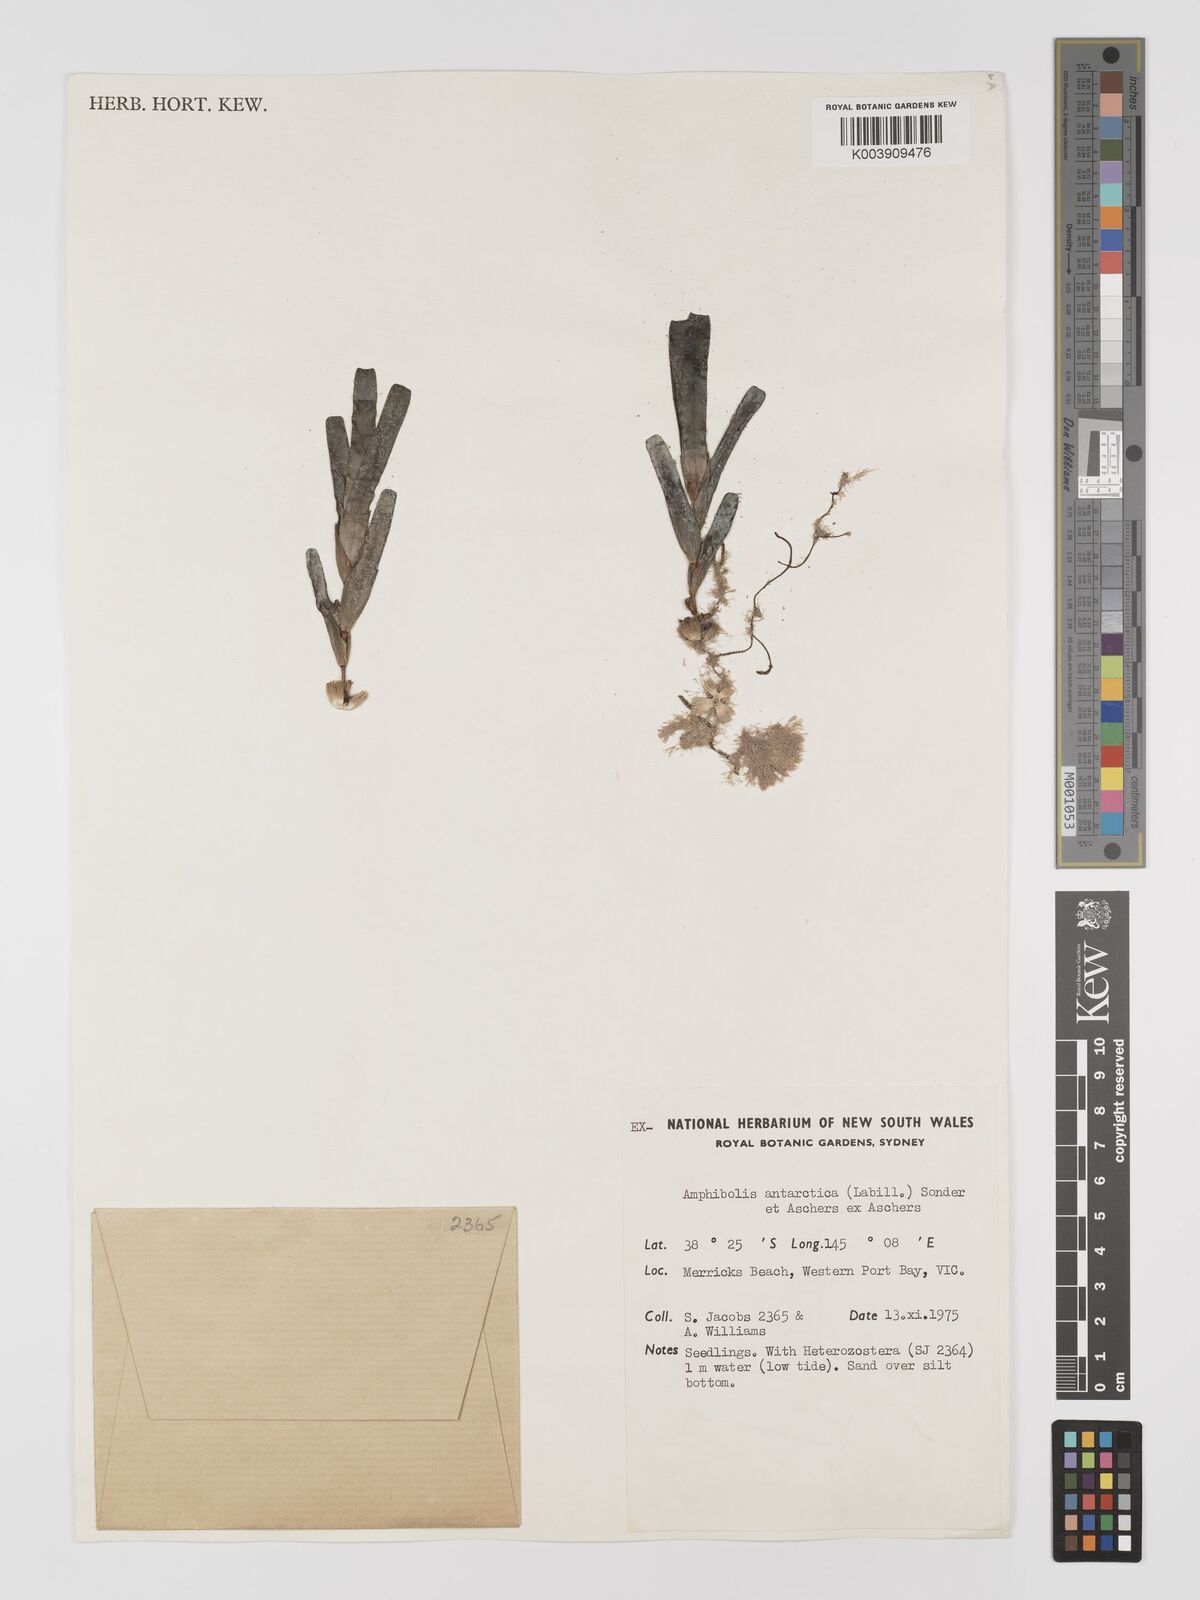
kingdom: Plantae
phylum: Tracheophyta
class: Liliopsida
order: Alismatales
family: Cymodoceaceae
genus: Amphibolis
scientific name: Amphibolis antarctica
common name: Species code: aa
